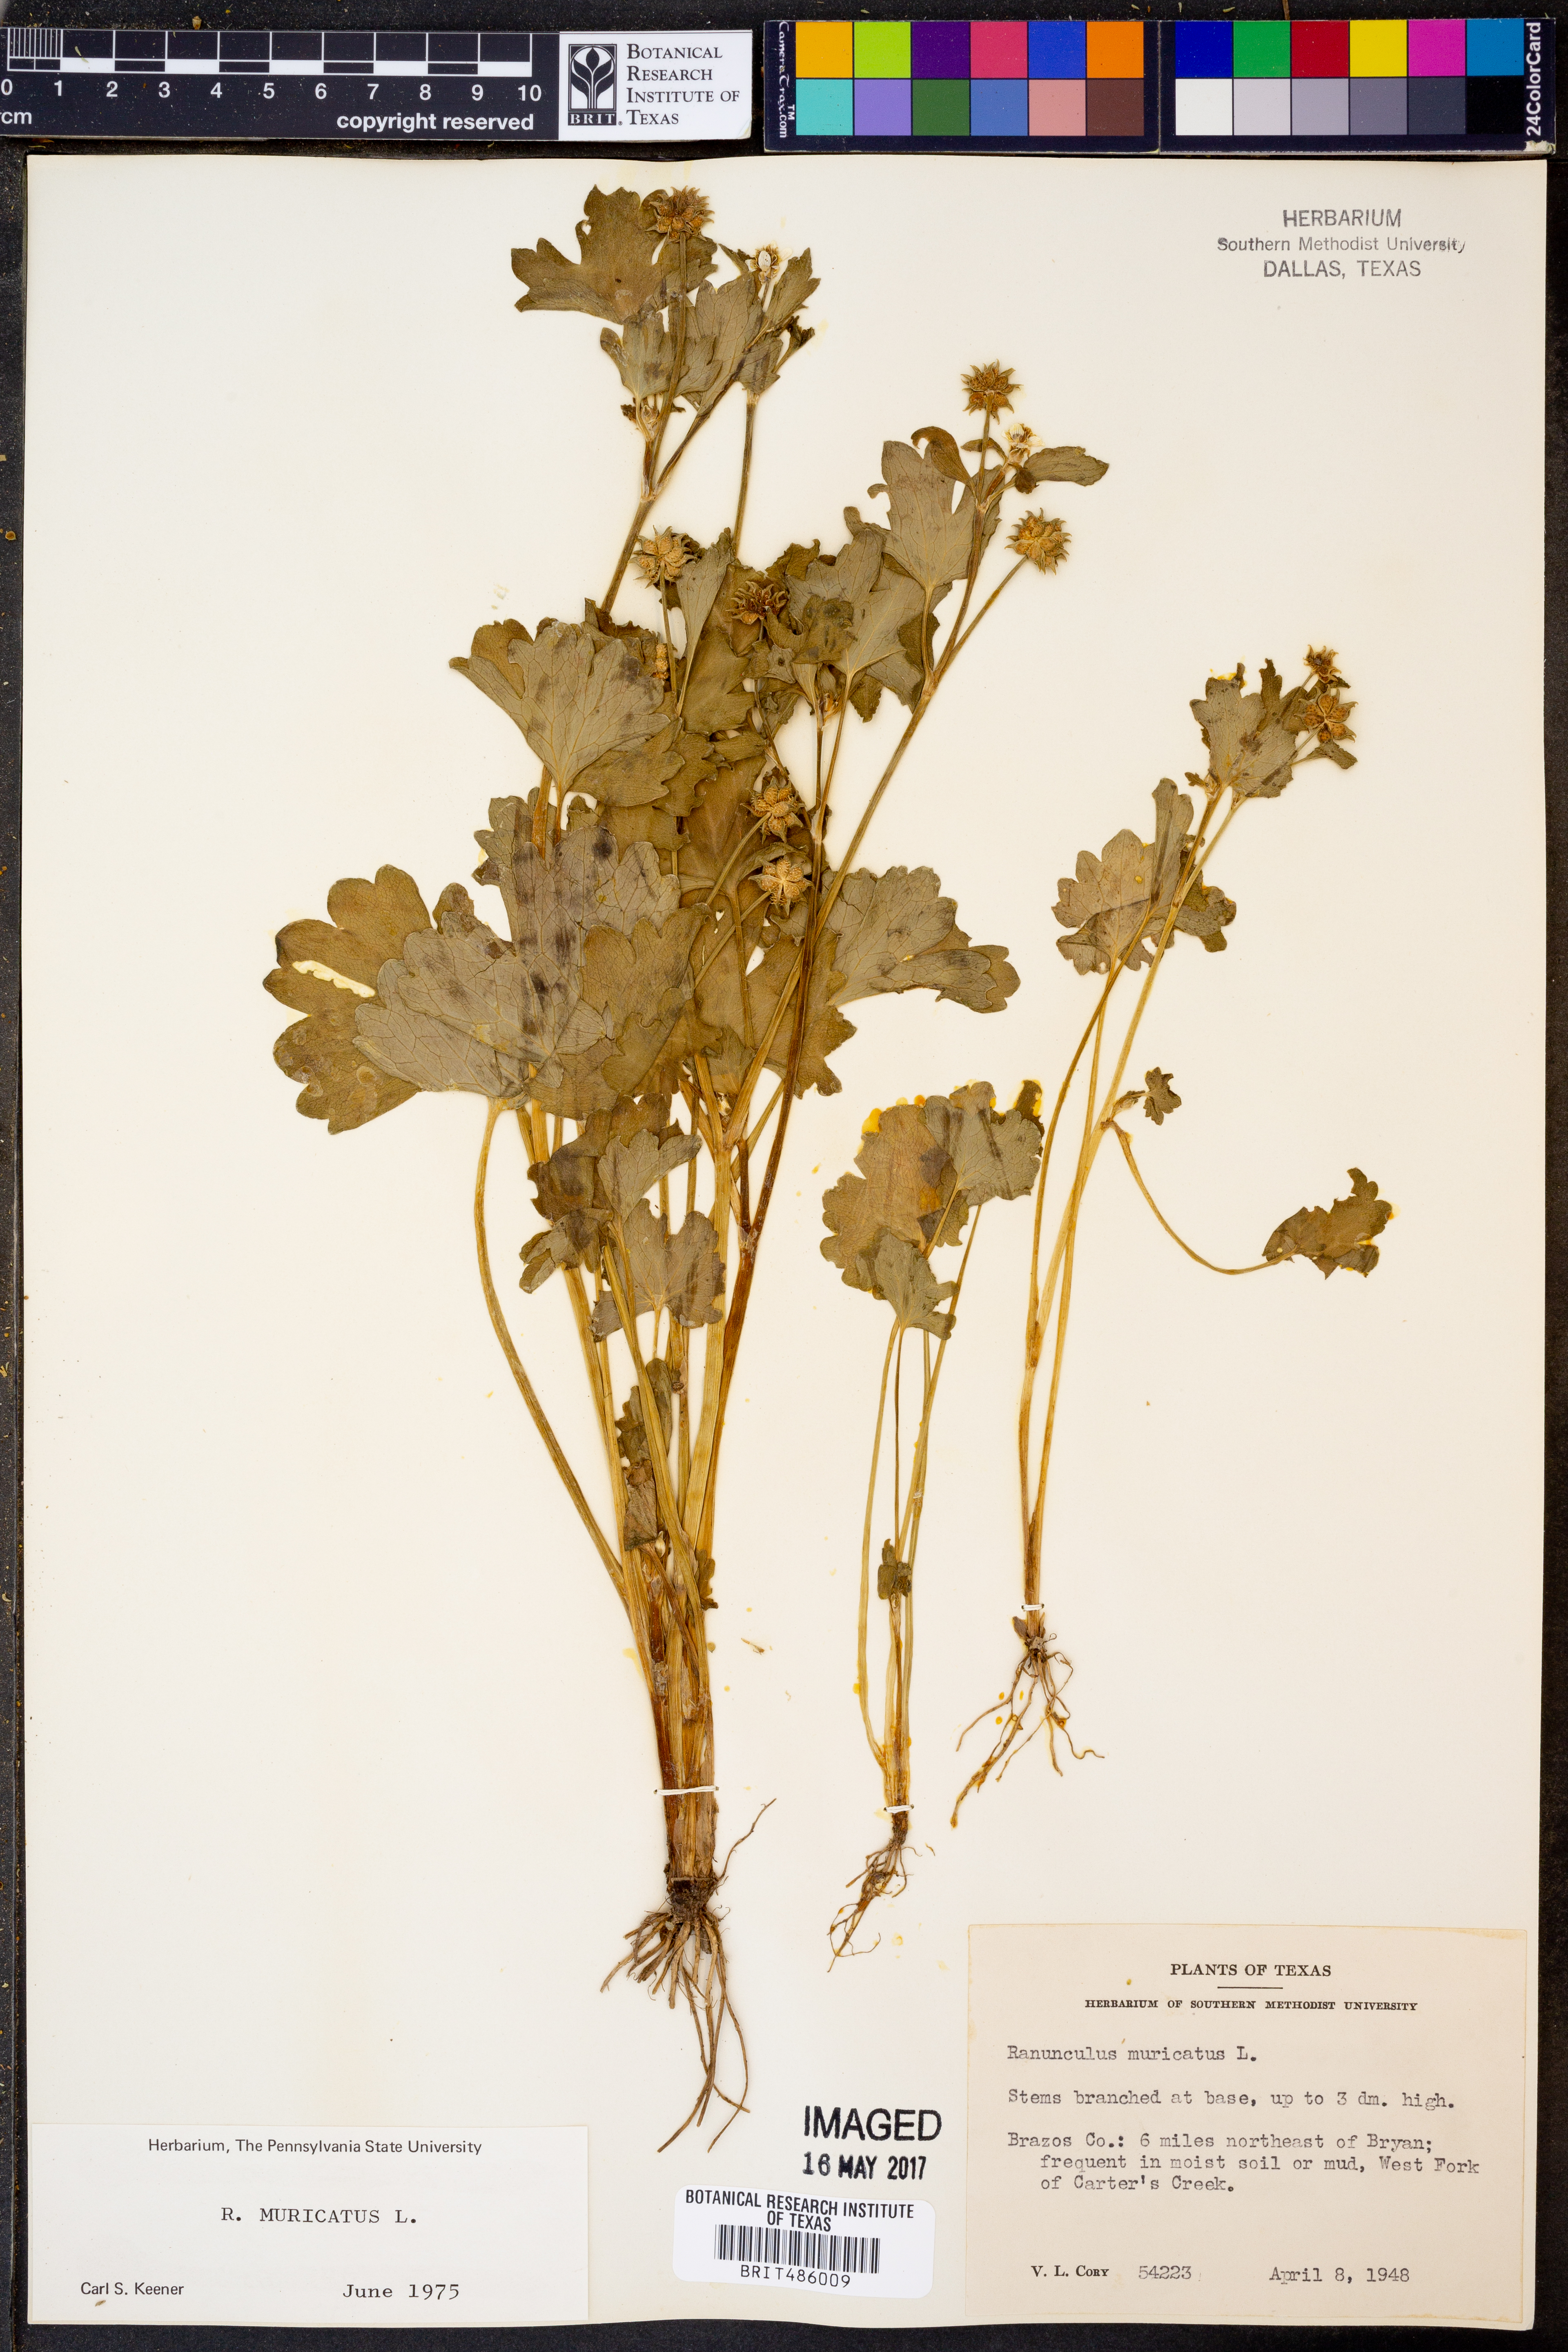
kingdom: Plantae
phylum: Tracheophyta
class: Magnoliopsida
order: Ranunculales
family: Ranunculaceae
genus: Ranunculus
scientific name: Ranunculus muricatus
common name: Rough-fruited buttercup
